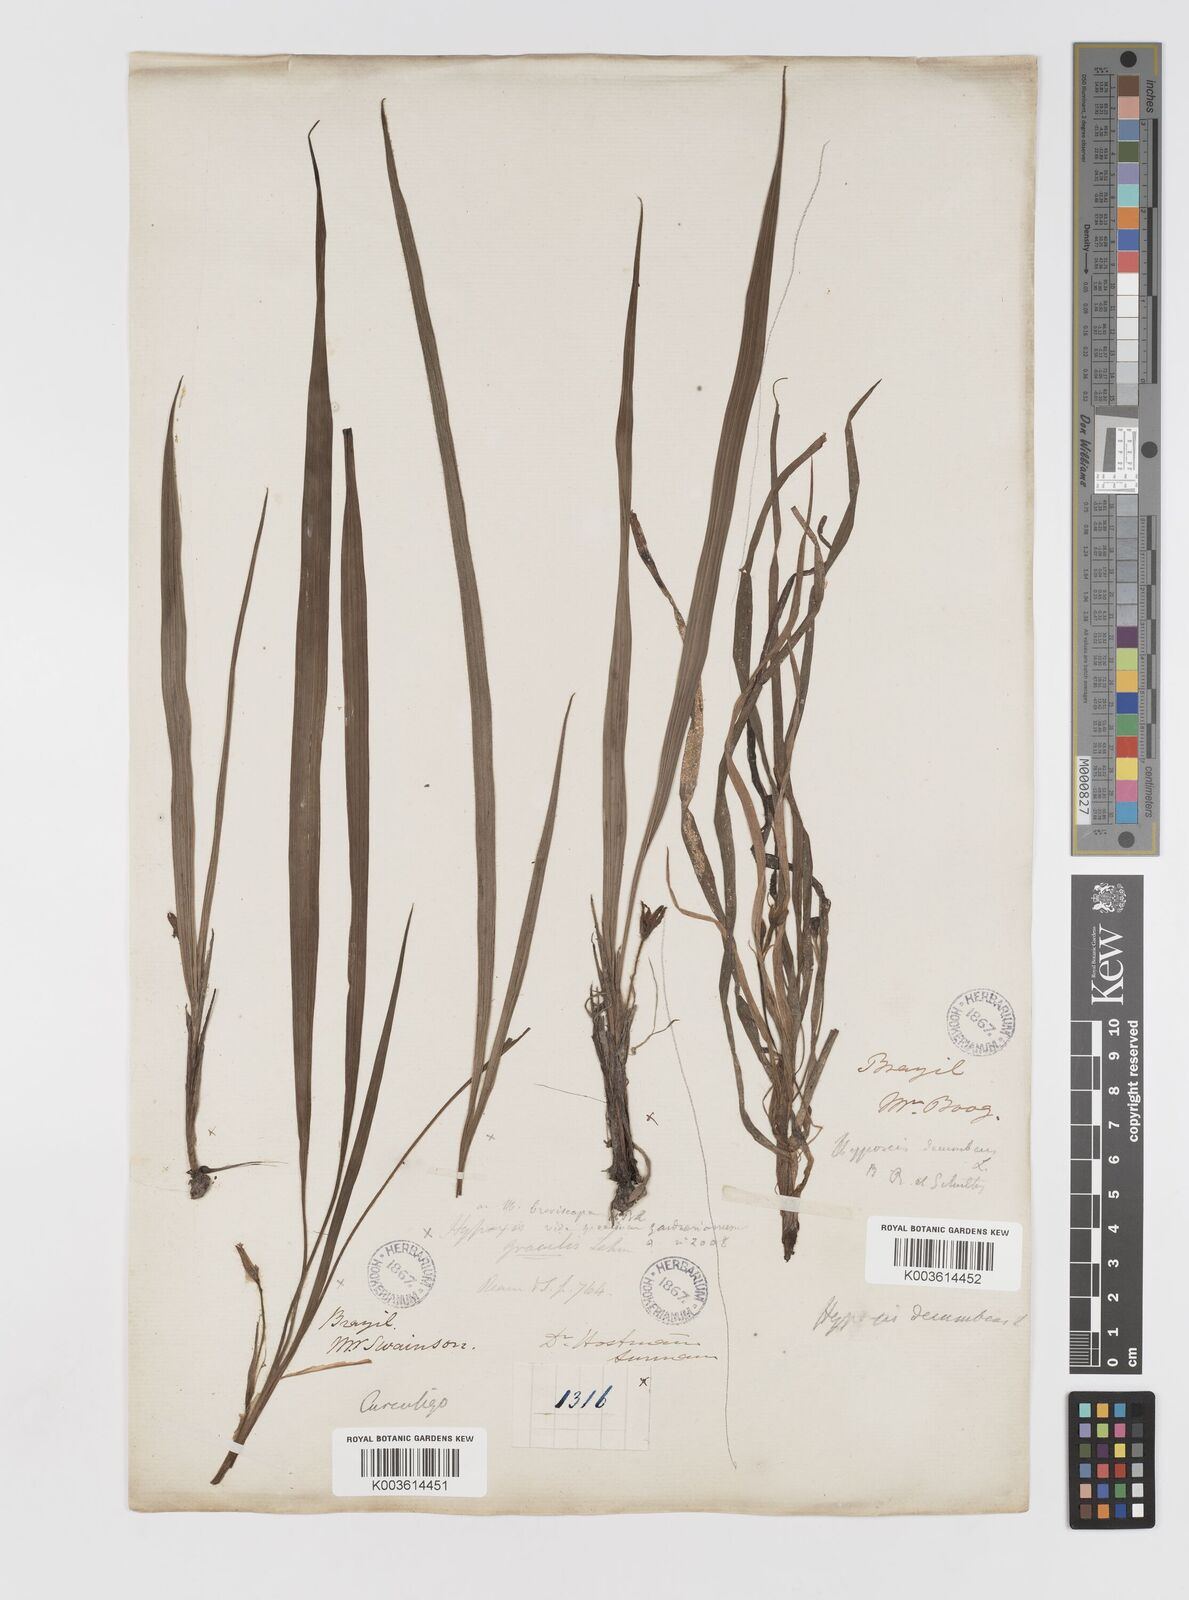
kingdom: Plantae
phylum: Tracheophyta
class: Liliopsida
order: Asparagales
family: Hypoxidaceae
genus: Curculigo
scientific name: Curculigo scorzonerifolia
